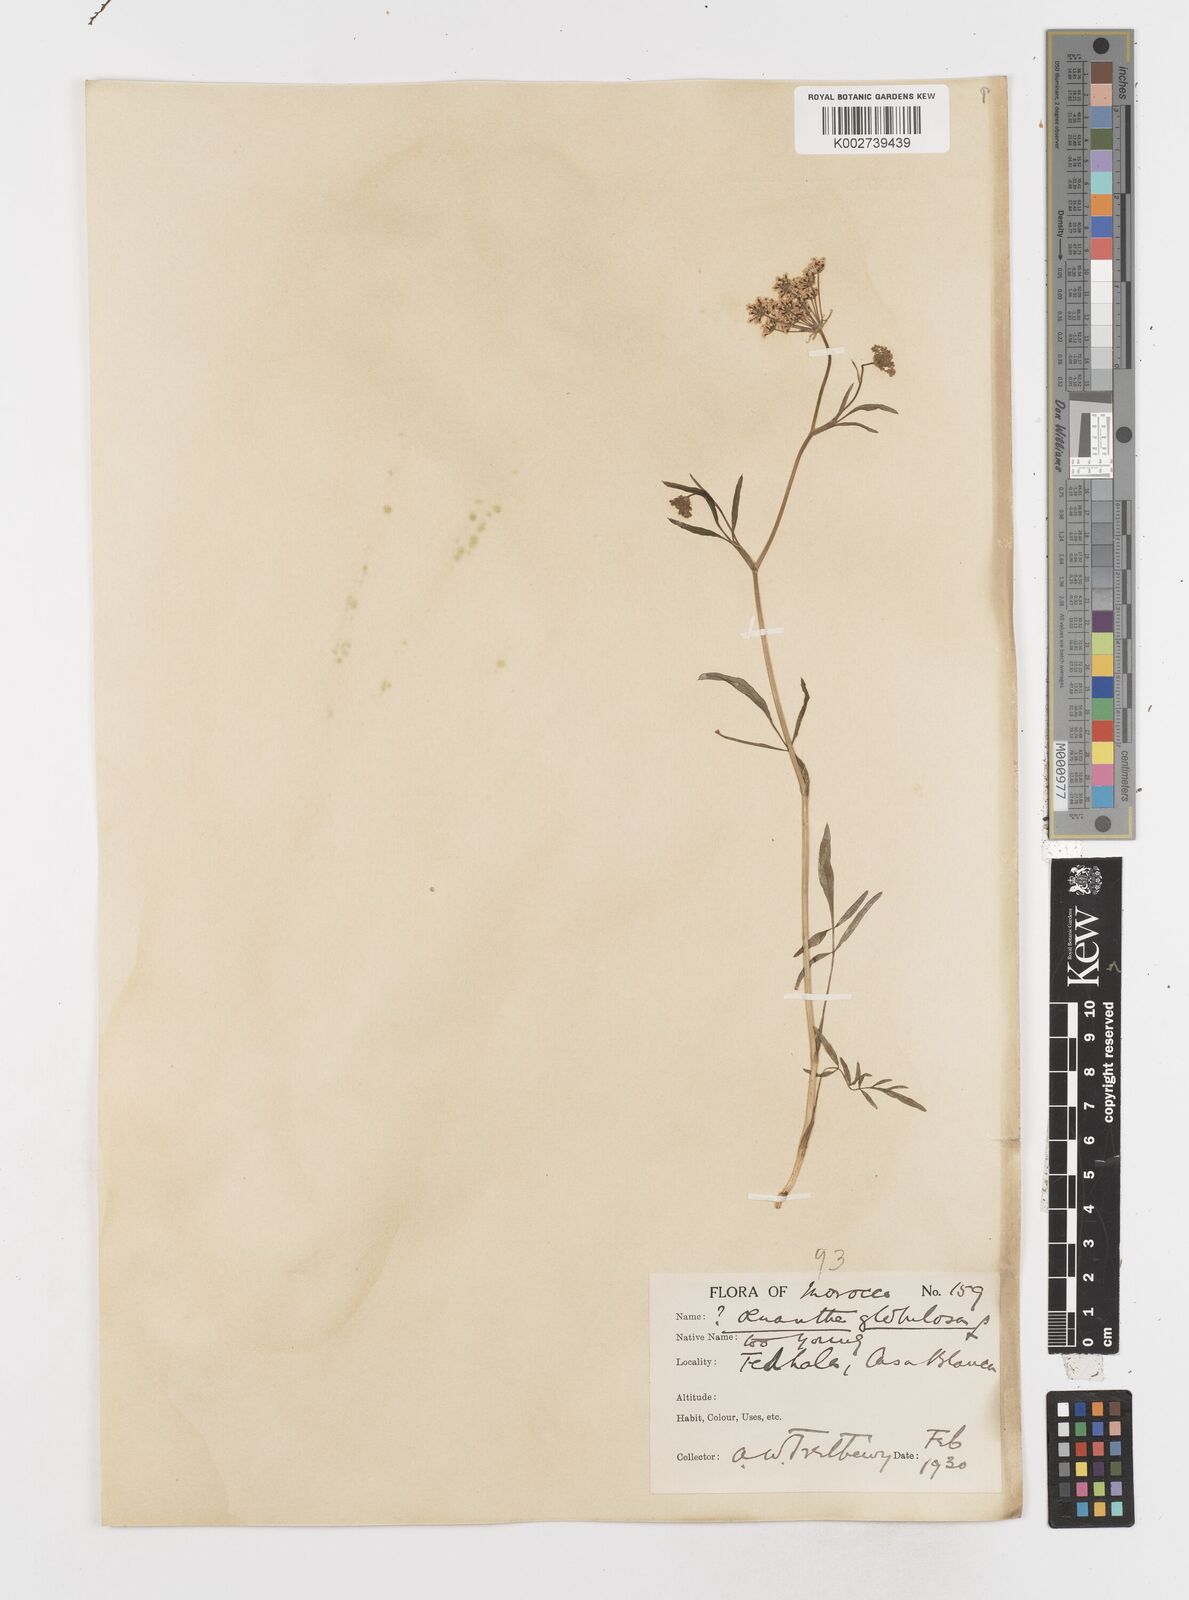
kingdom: Plantae
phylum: Tracheophyta
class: Magnoliopsida
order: Apiales
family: Apiaceae
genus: Oenanthe
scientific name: Oenanthe globulosa
